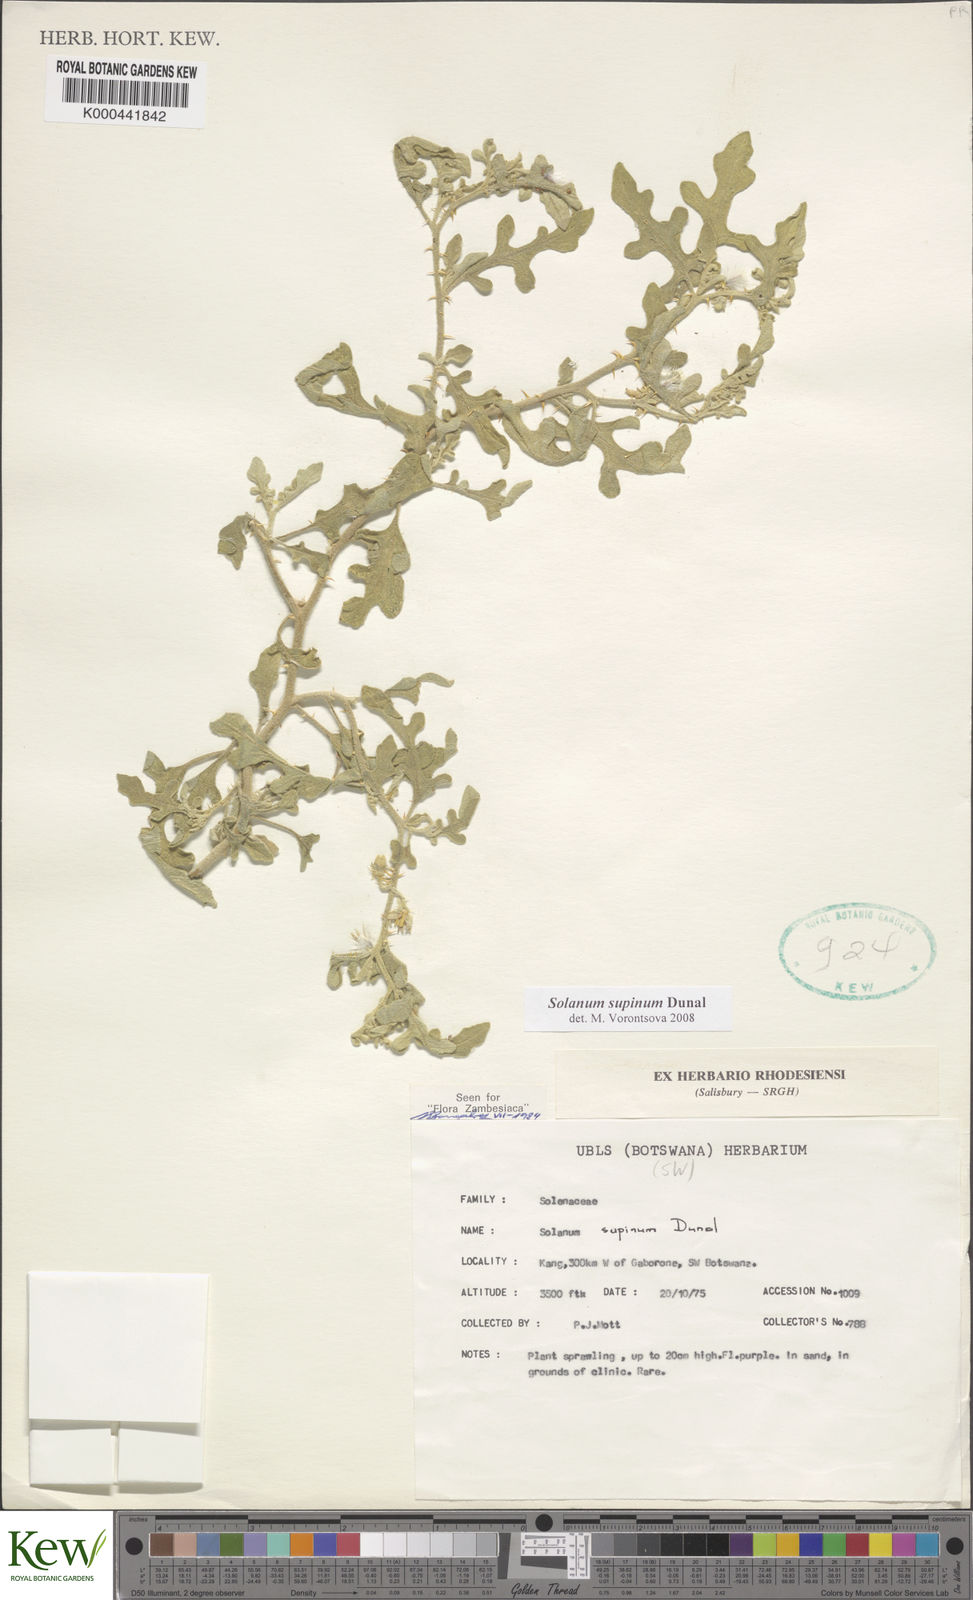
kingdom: Plantae
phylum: Tracheophyta
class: Magnoliopsida
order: Solanales
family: Solanaceae
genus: Solanum
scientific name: Solanum supinum
